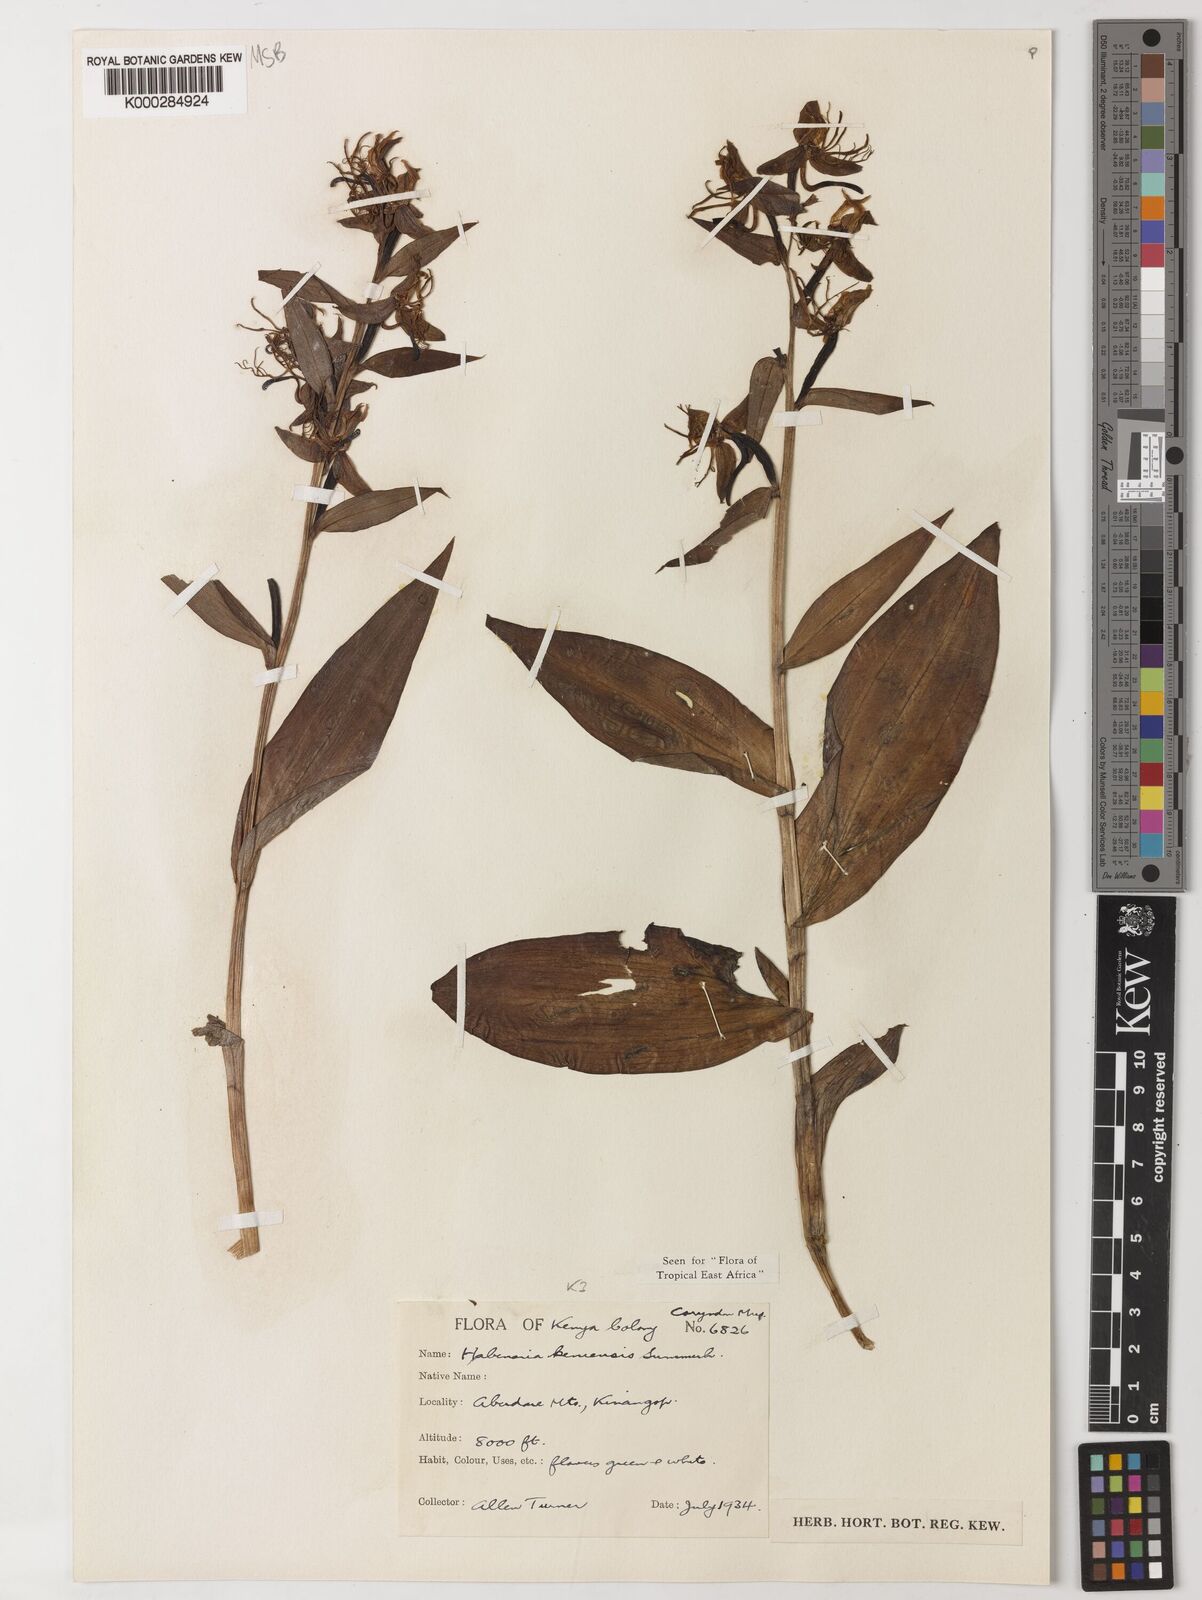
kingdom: Plantae
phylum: Tracheophyta
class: Liliopsida
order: Asparagales
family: Orchidaceae
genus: Habenaria
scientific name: Habenaria keniensis
